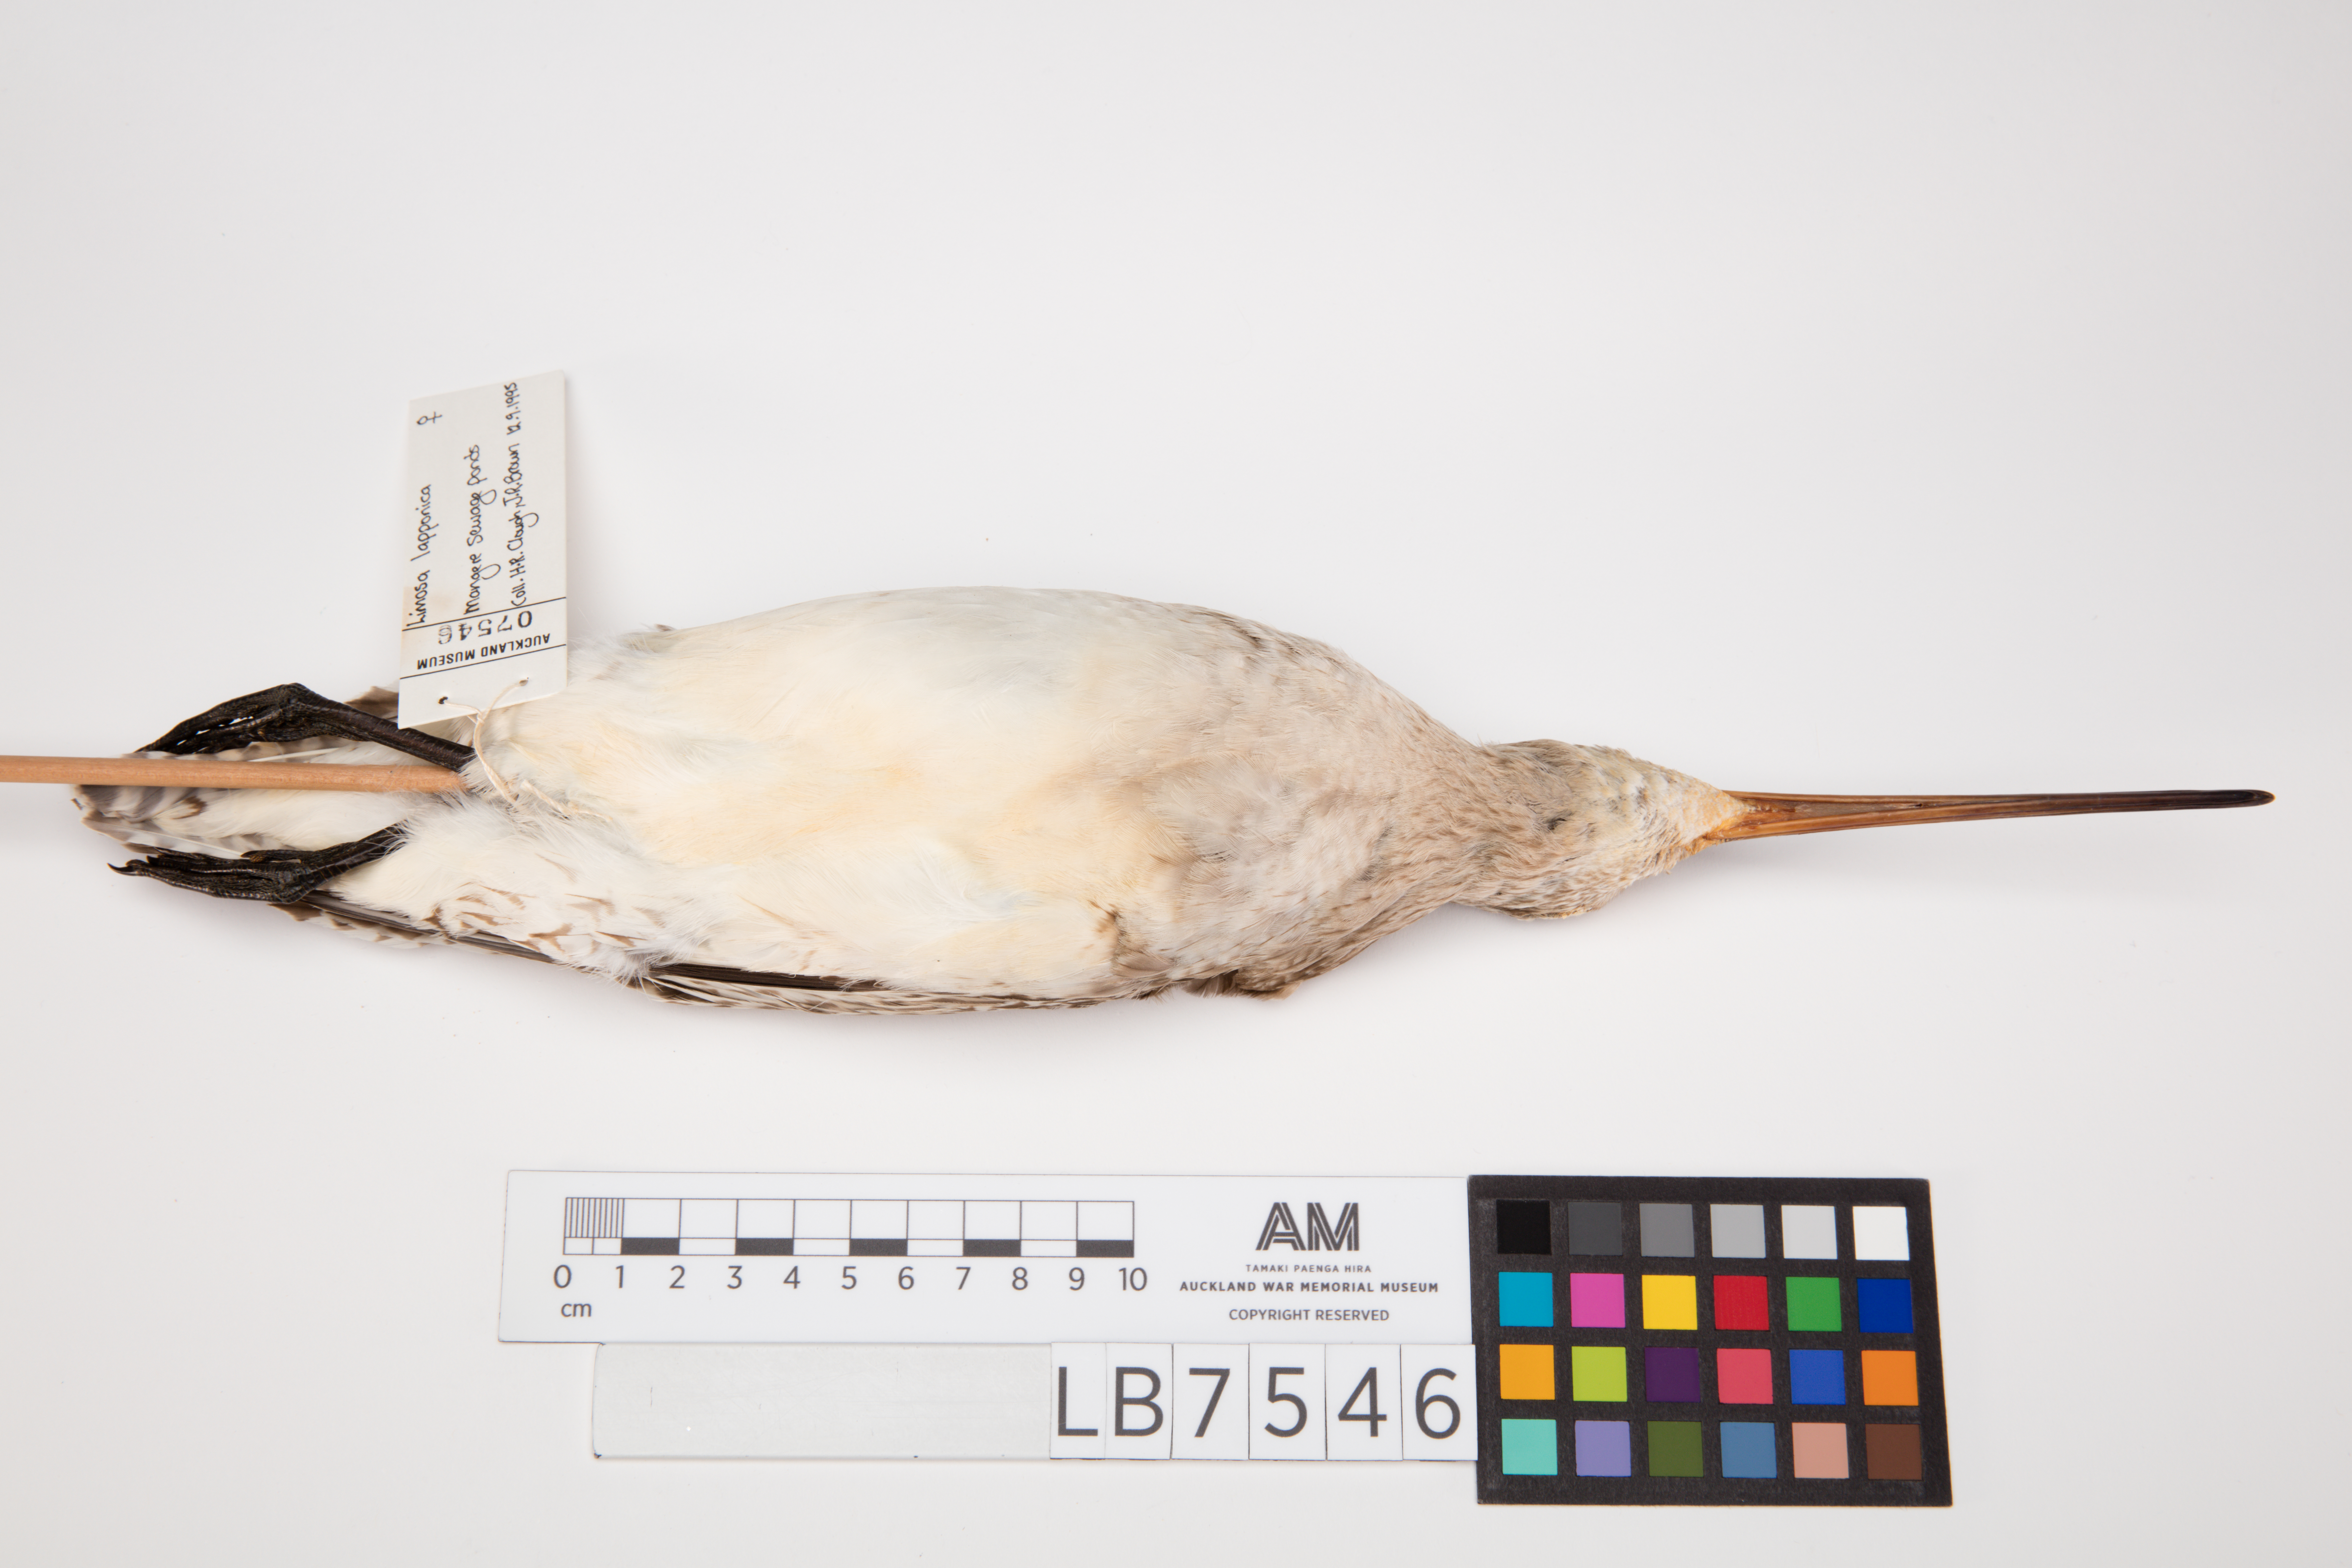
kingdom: Animalia
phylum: Chordata
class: Aves
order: Charadriiformes
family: Scolopacidae
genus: Limosa
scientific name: Limosa lapponica
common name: Bar-tailed godwit
